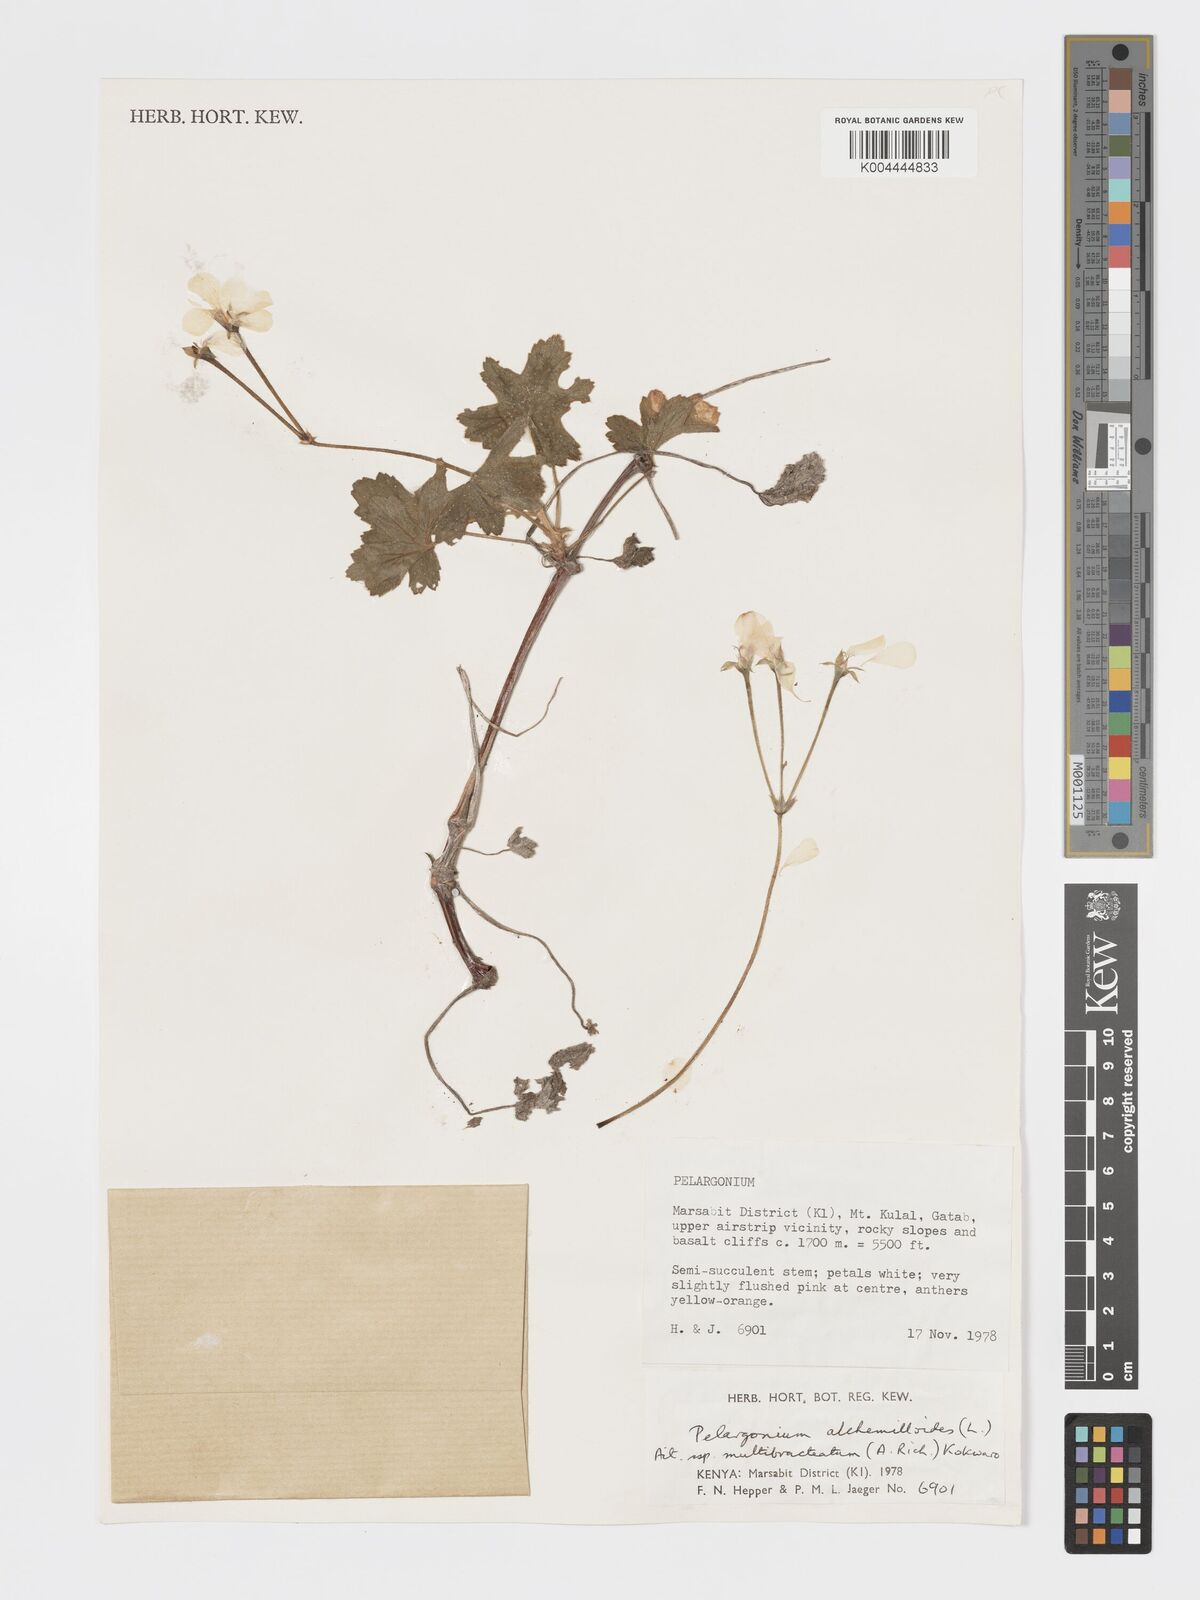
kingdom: Plantae
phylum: Tracheophyta
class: Magnoliopsida
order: Geraniales
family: Geraniaceae
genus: Pelargonium
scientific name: Pelargonium alchemilloides
